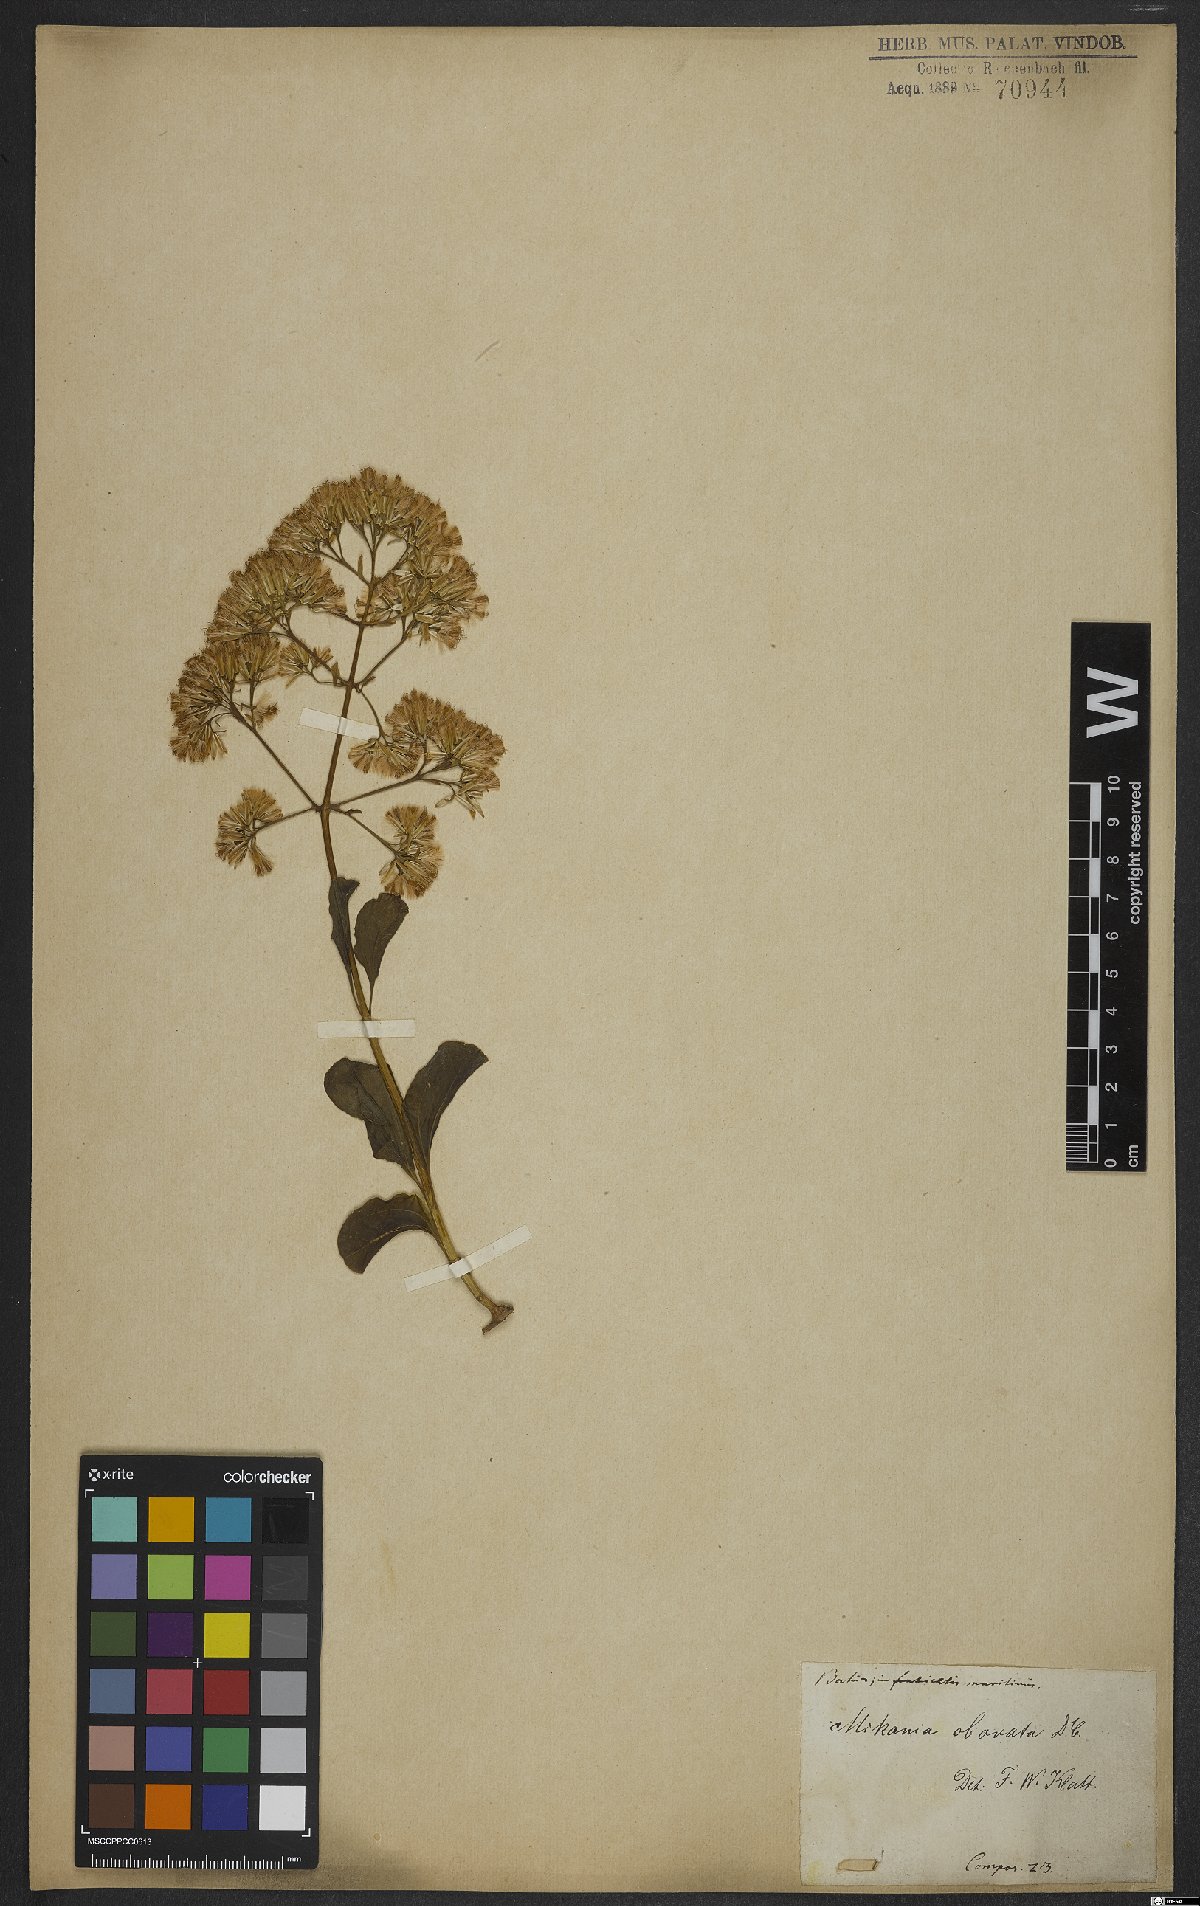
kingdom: Plantae
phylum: Tracheophyta
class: Magnoliopsida
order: Asterales
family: Asteraceae
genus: Mikania
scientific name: Mikania obovata
